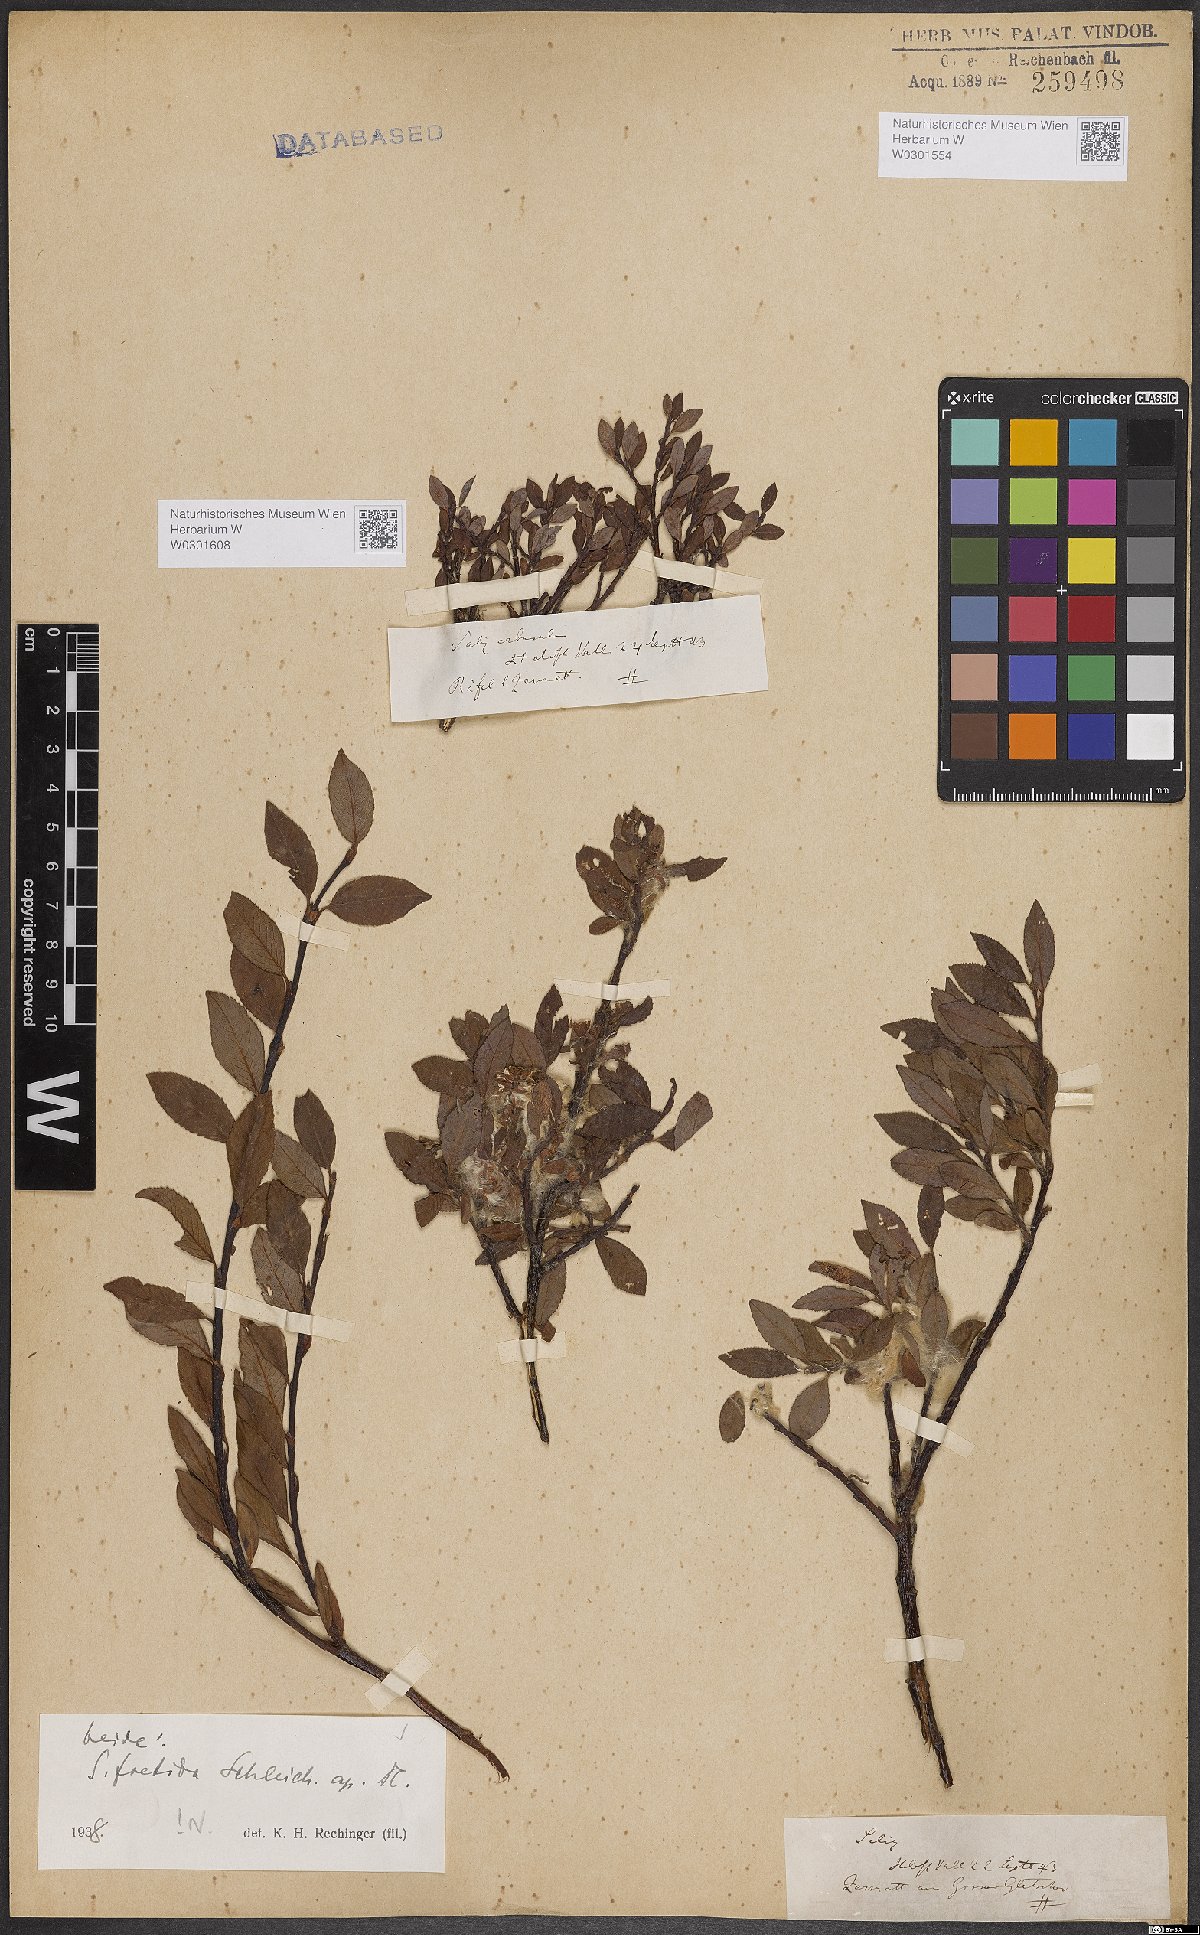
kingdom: Plantae
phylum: Tracheophyta
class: Magnoliopsida
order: Malpighiales
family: Salicaceae
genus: Salix
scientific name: Salix foetida
